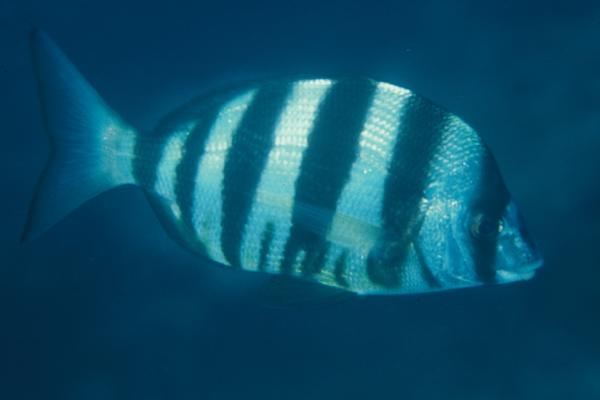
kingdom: Animalia
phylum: Chordata
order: Perciformes
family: Sparidae
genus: Diplodus
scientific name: Diplodus hottentotus
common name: Zebra
